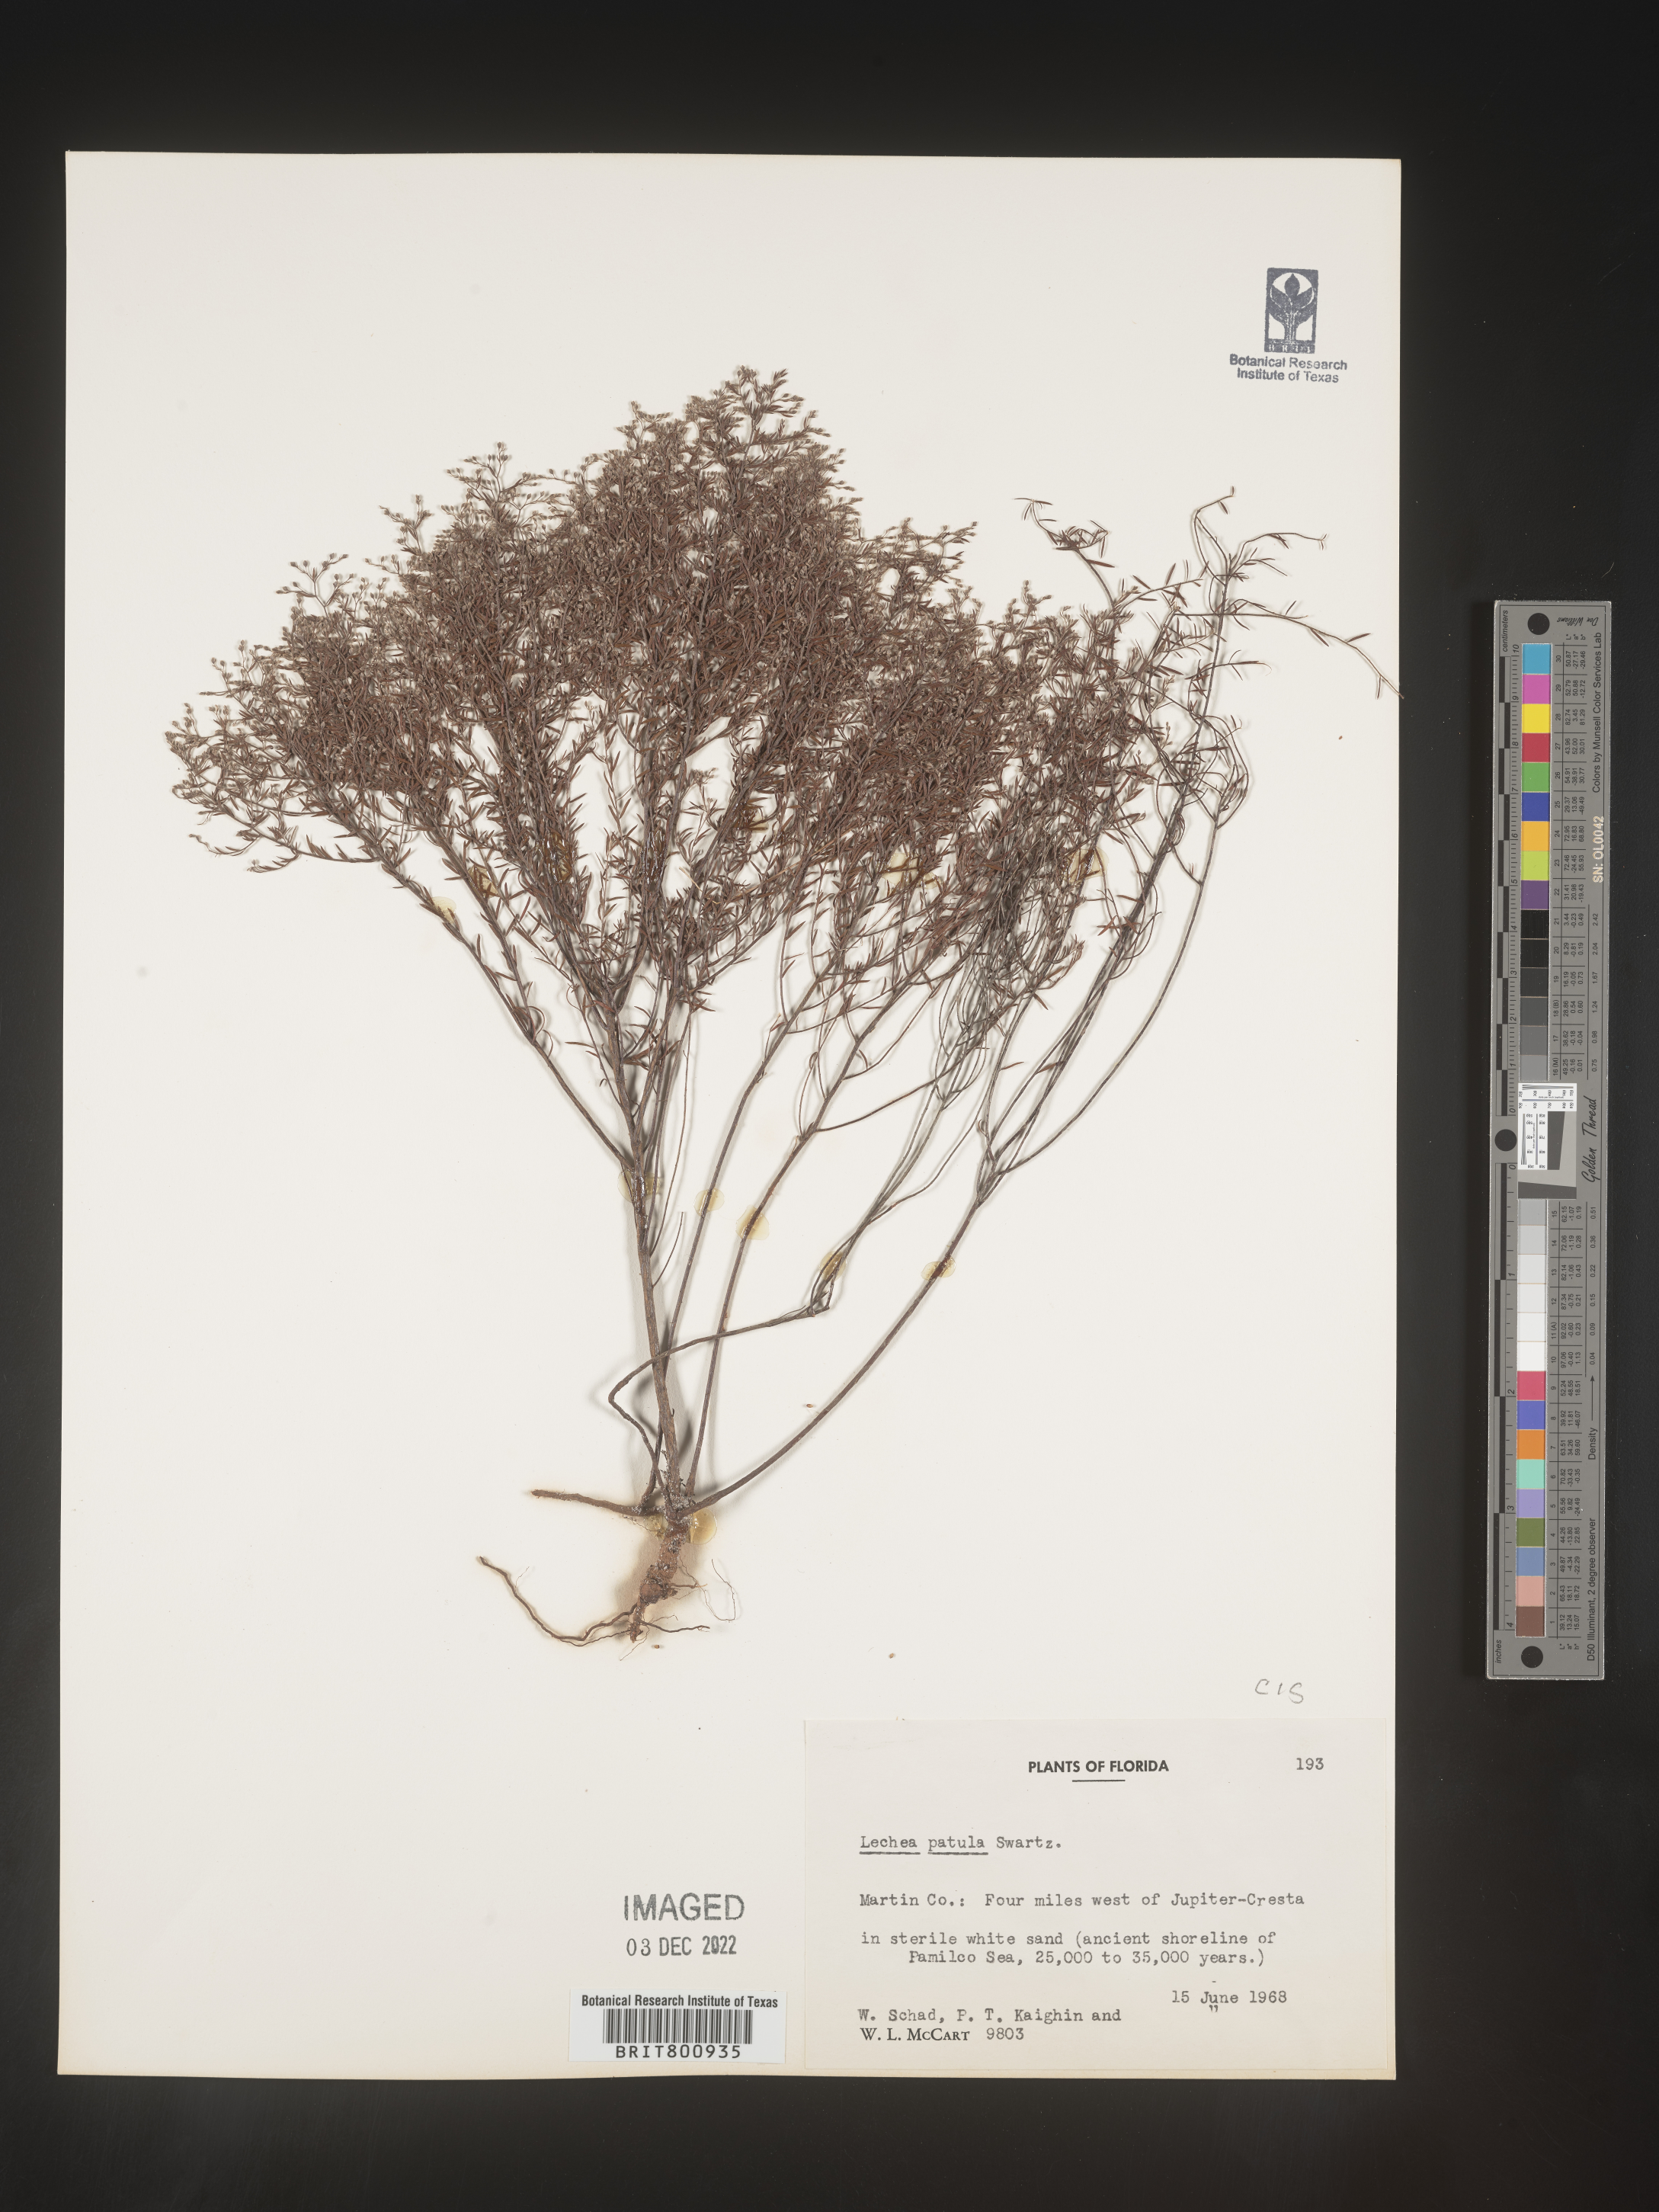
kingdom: Plantae
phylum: Tracheophyta
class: Magnoliopsida
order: Malvales
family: Cistaceae
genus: Lechea
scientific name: Lechea sessiliflora
